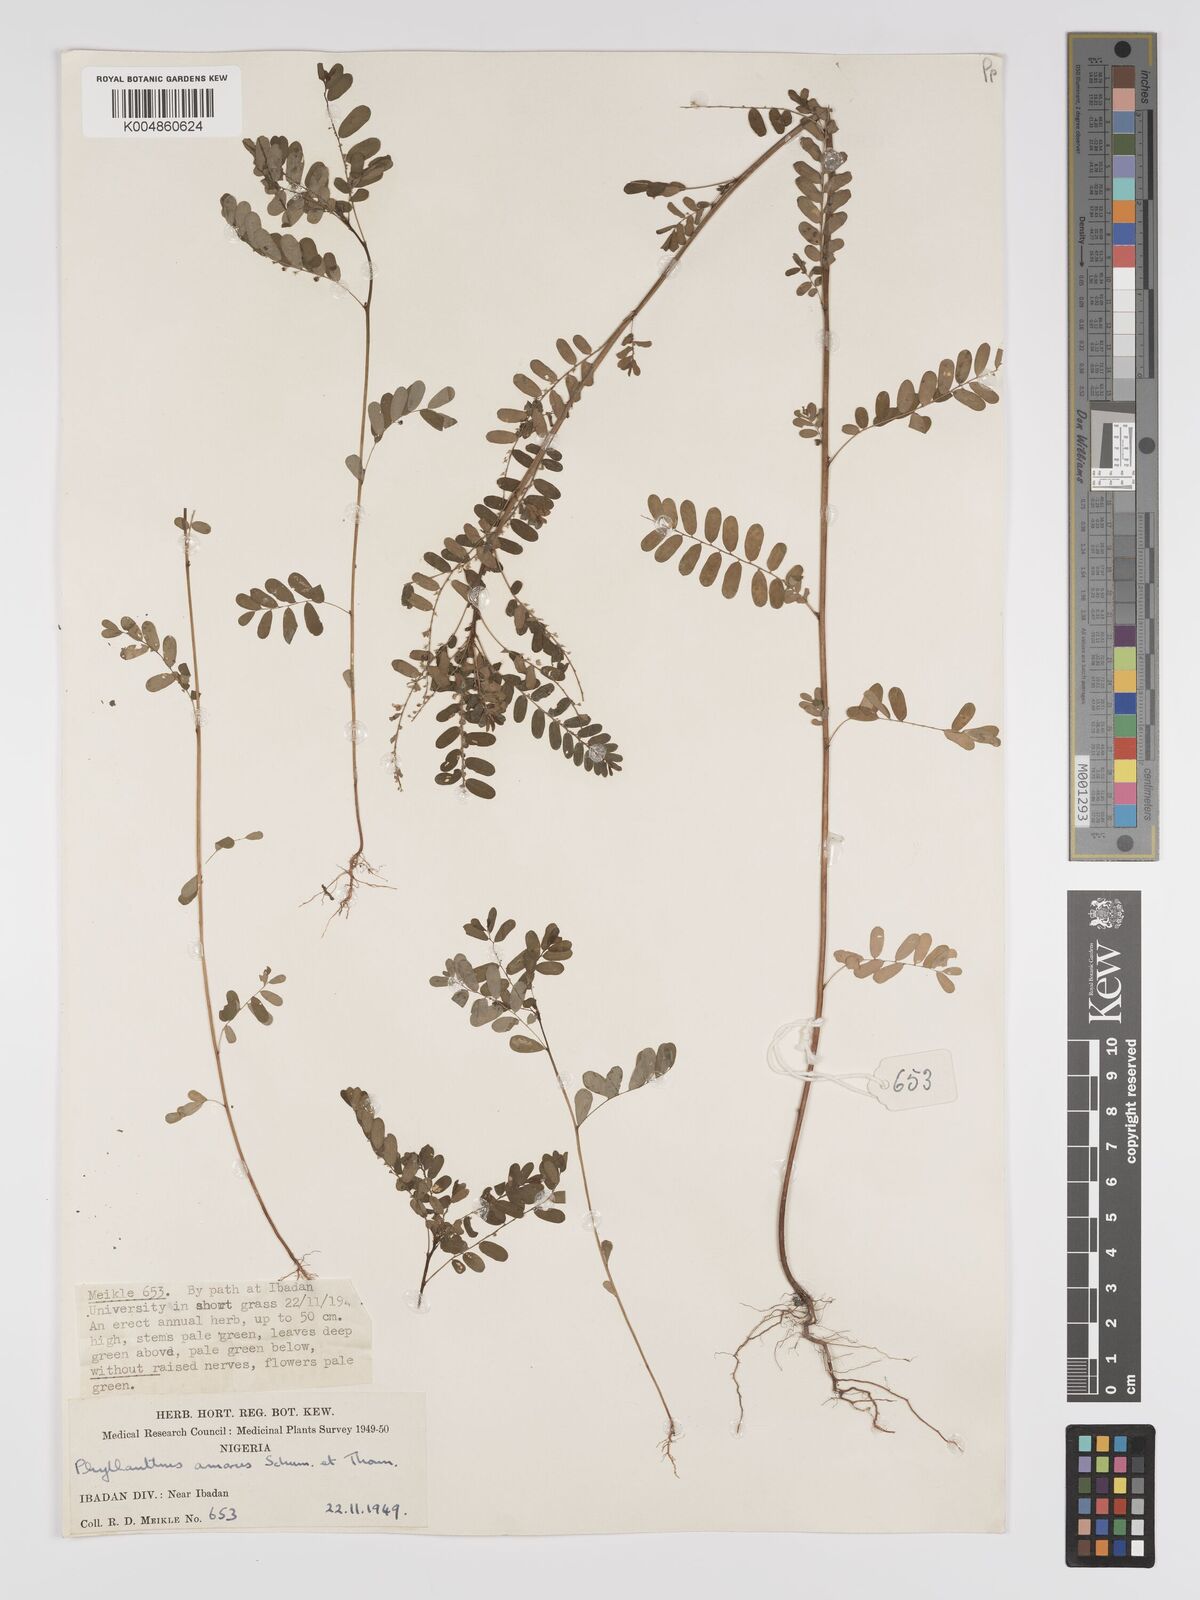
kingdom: Plantae
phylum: Tracheophyta
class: Magnoliopsida
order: Malpighiales
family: Phyllanthaceae
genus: Phyllanthus
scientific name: Phyllanthus amarus
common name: Carry me seed
